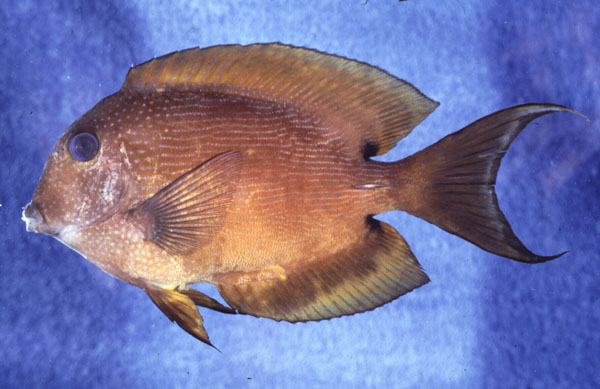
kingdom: Animalia
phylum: Chordata
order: Perciformes
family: Acanthuridae
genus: Ctenochaetus
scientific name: Ctenochaetus binotatus
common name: Two-spot bristletooth
